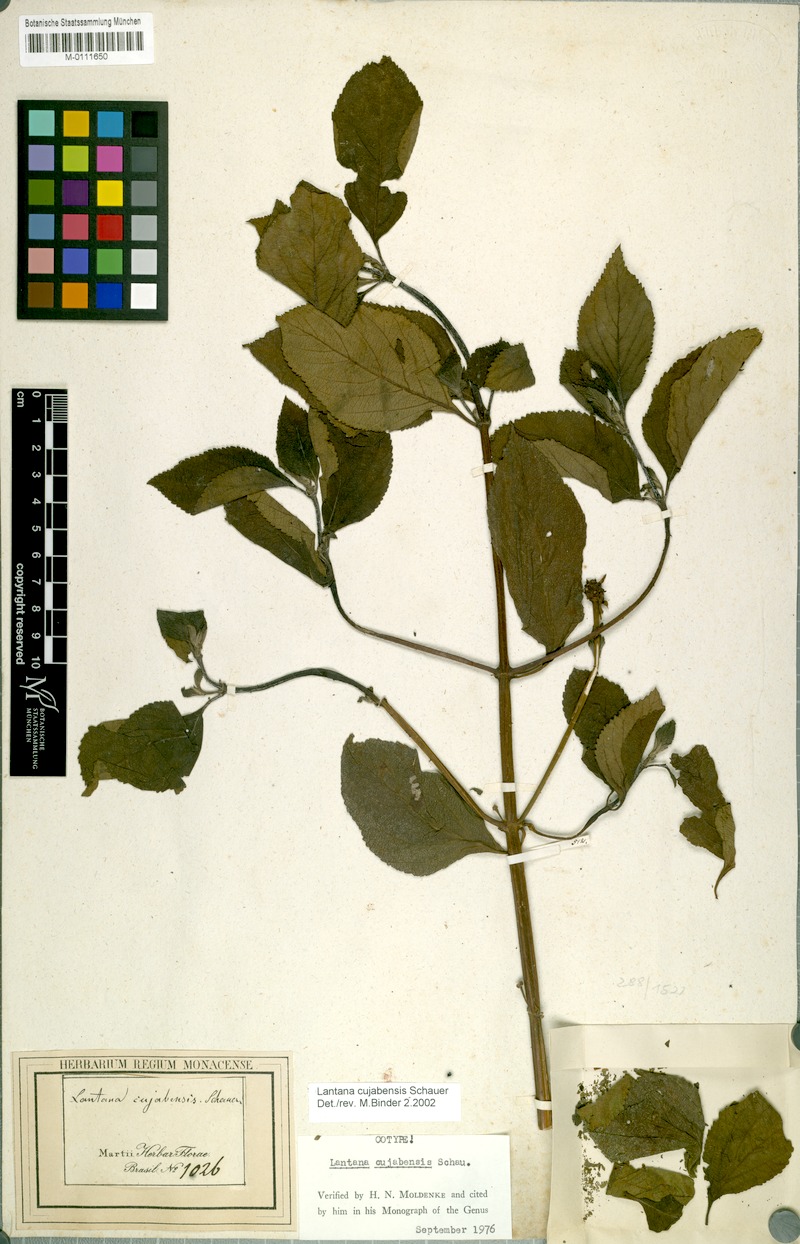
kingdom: Plantae
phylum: Tracheophyta
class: Magnoliopsida
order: Lamiales
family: Verbenaceae
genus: Lantana
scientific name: Lantana cujabensis
